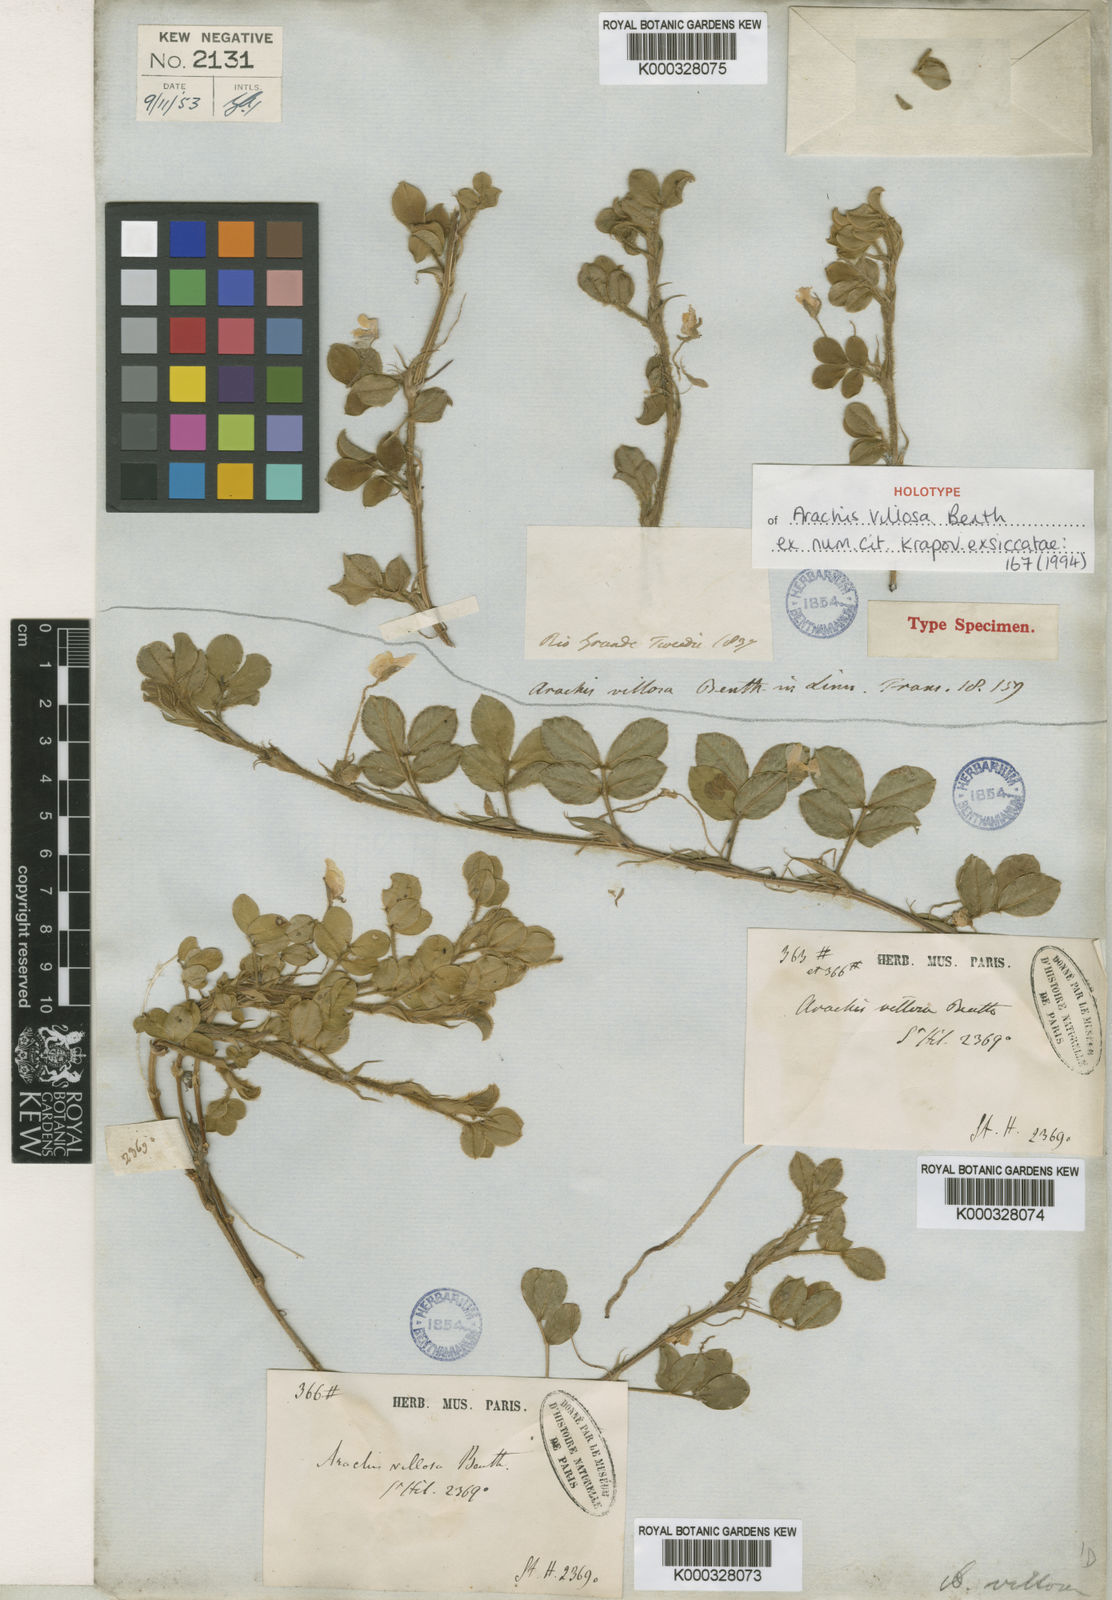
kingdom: Plantae
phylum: Tracheophyta
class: Magnoliopsida
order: Fabales
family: Fabaceae
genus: Arachis
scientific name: Arachis villosa
